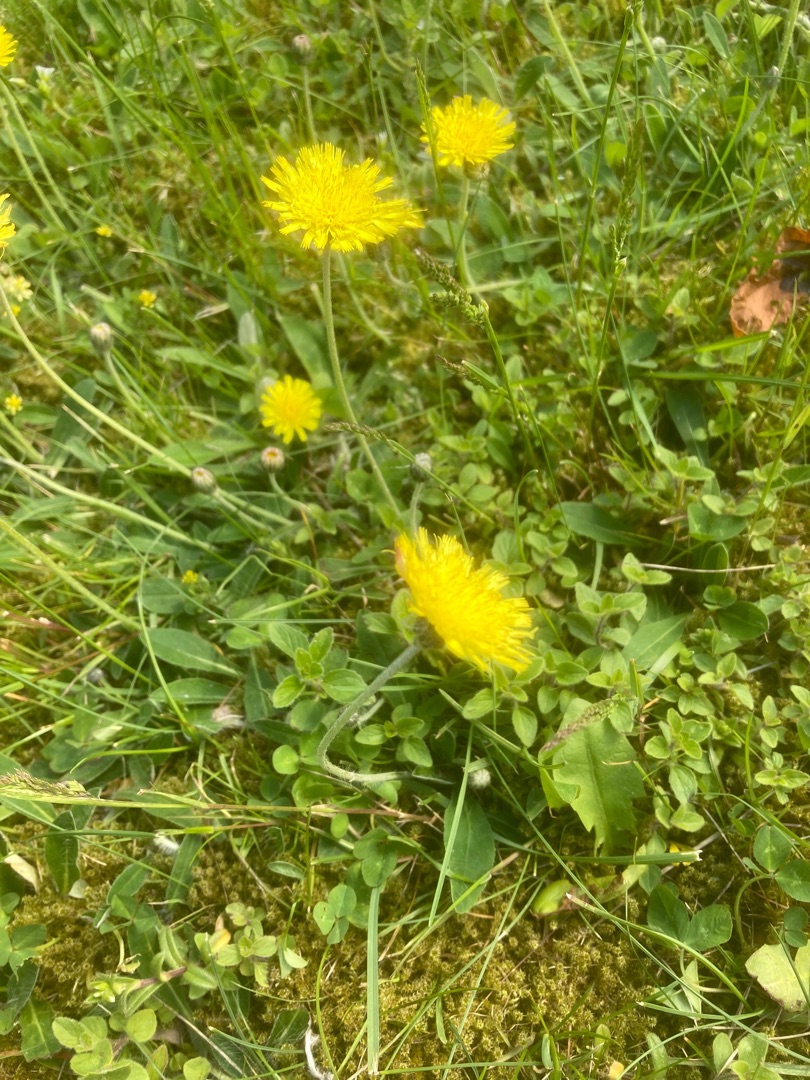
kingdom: Plantae
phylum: Tracheophyta
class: Magnoliopsida
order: Asterales
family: Asteraceae
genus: Pilosella
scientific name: Pilosella officinarum
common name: Håret høgeurt
